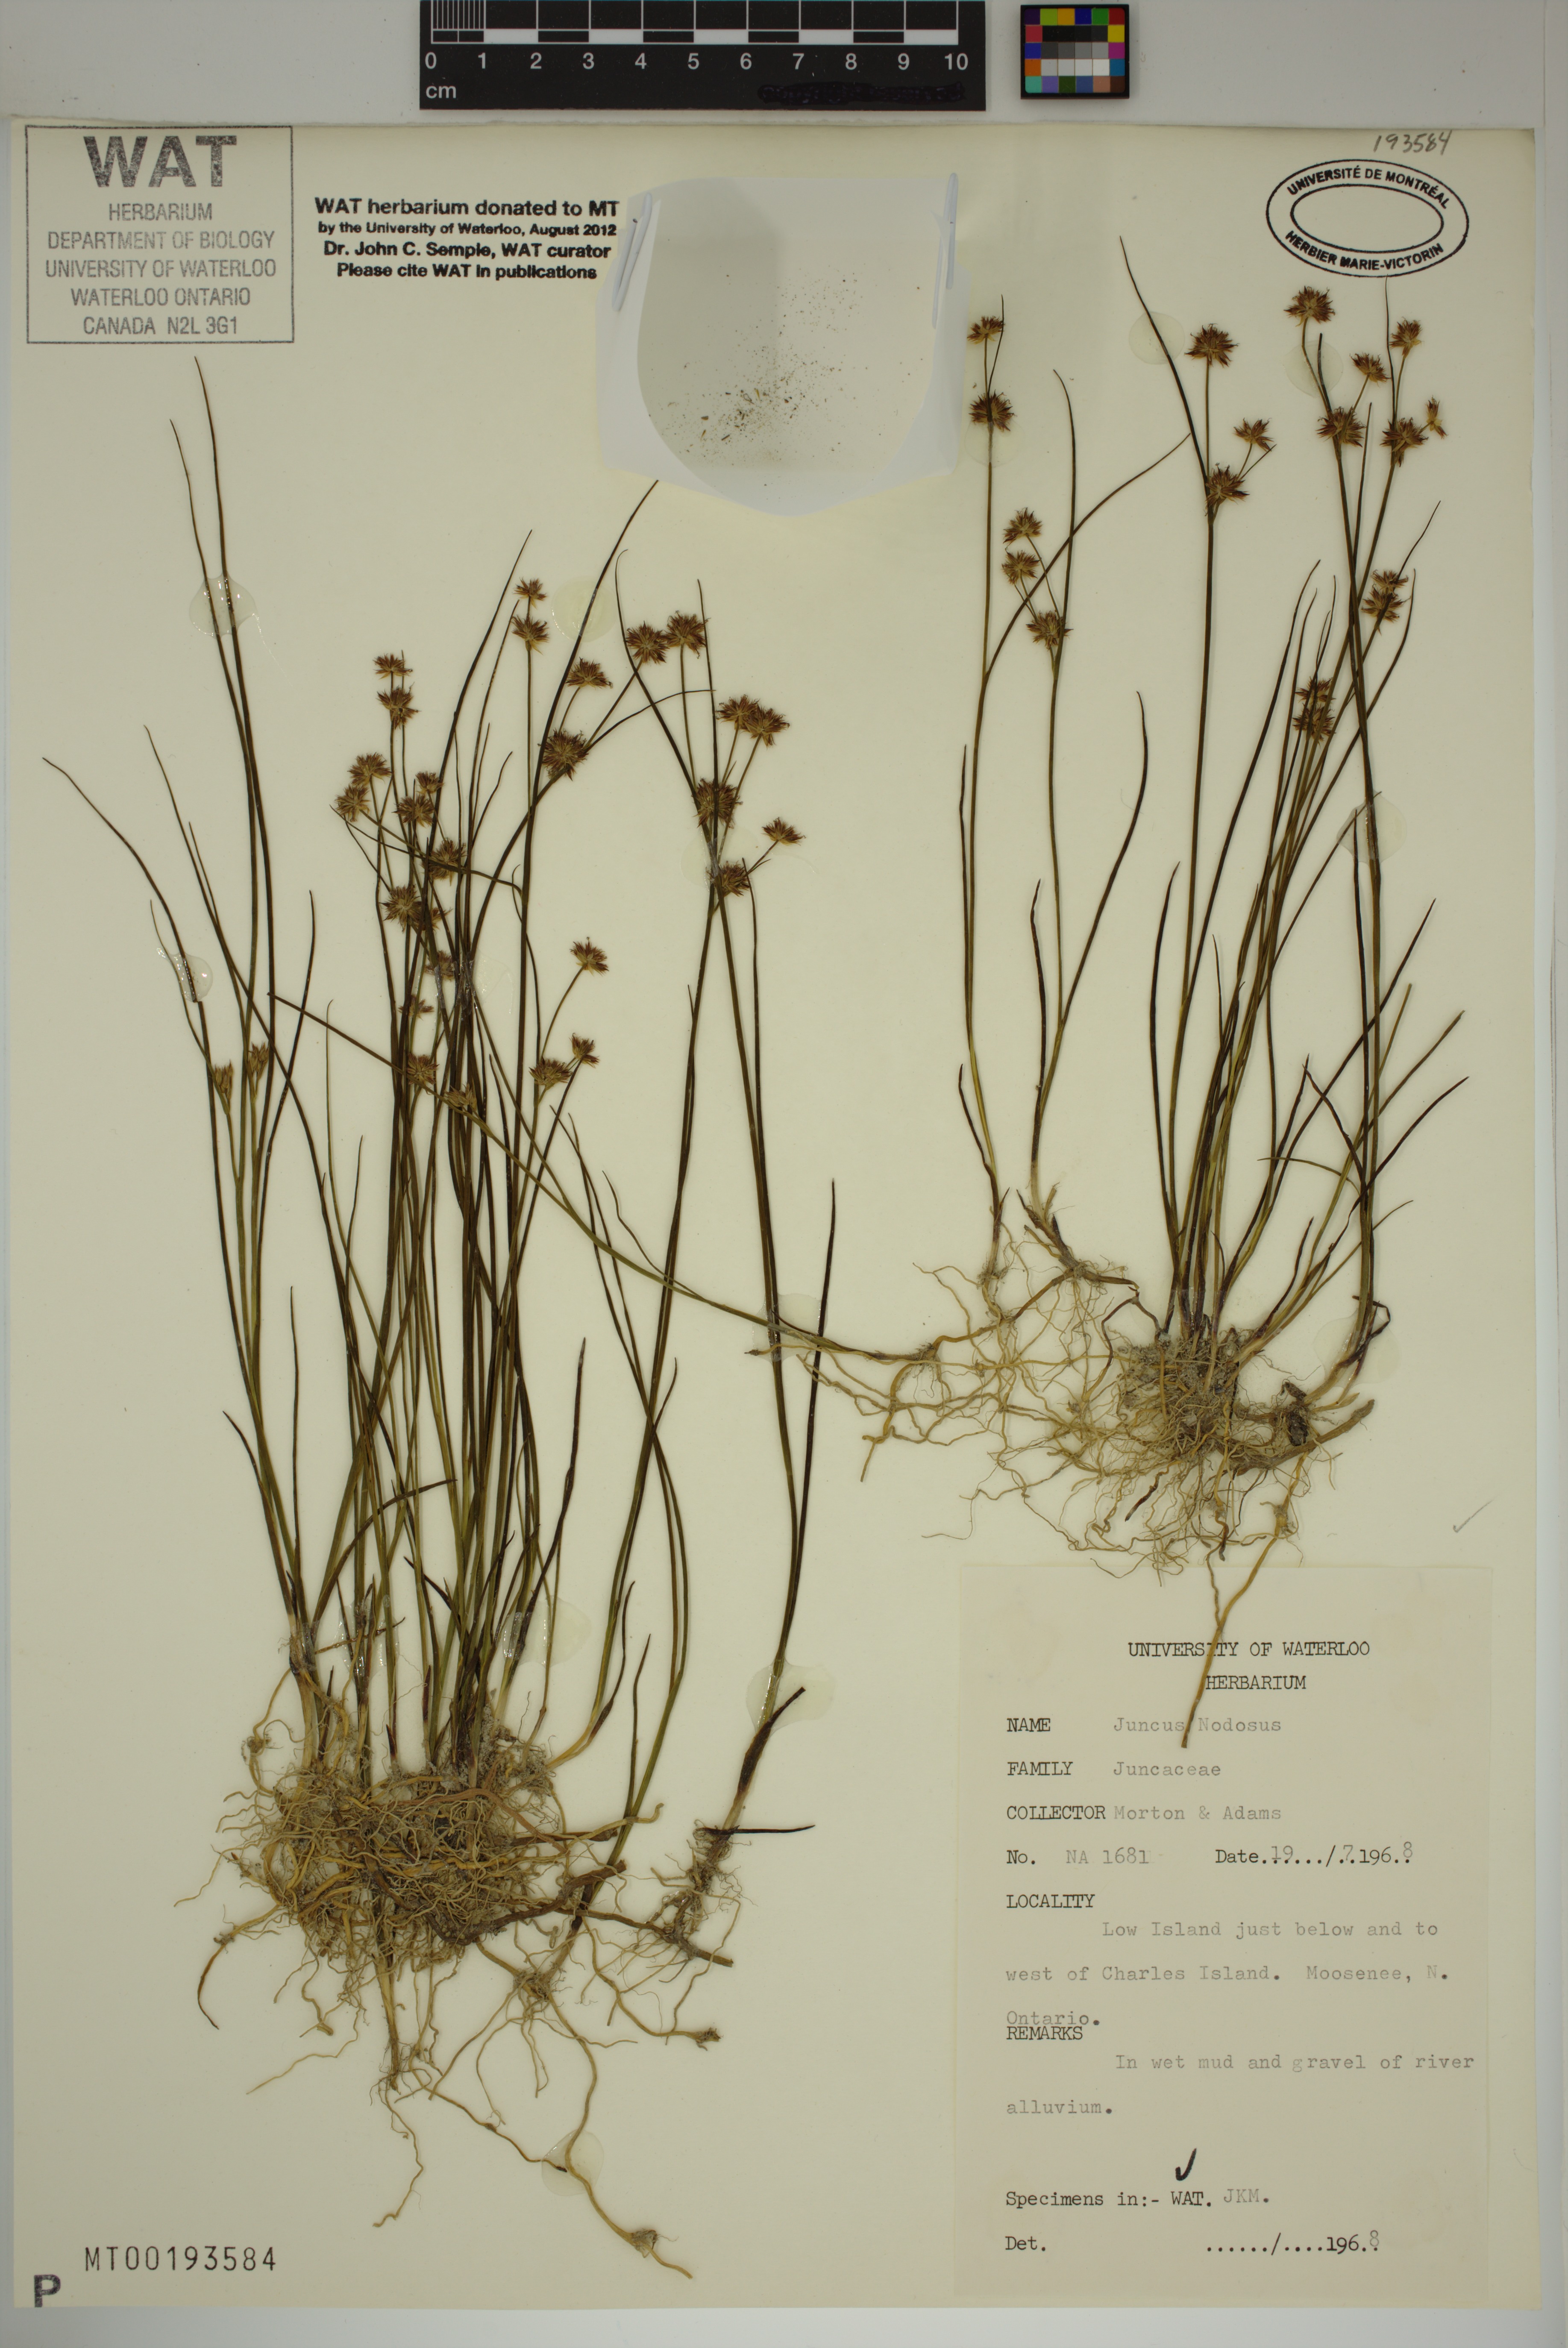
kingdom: Plantae
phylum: Tracheophyta
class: Liliopsida
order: Poales
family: Juncaceae
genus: Juncus
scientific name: Juncus nodosus
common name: Knotted rush
